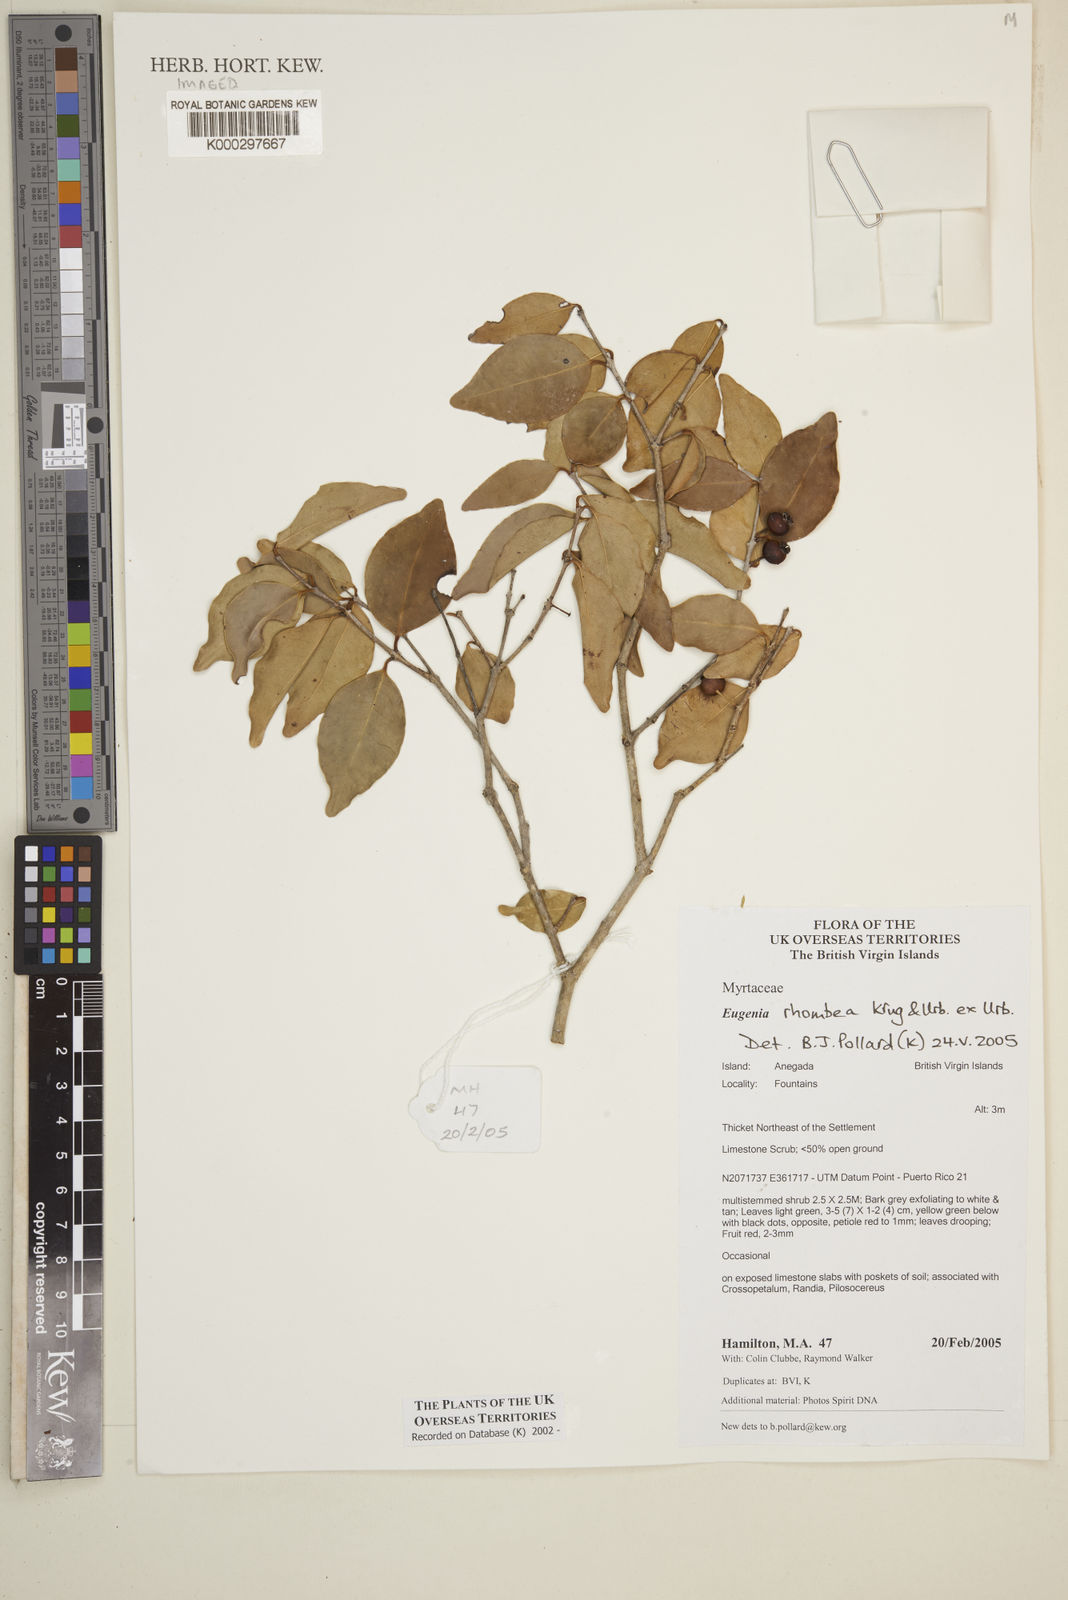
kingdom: Plantae
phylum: Tracheophyta
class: Magnoliopsida
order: Myrtales
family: Myrtaceae
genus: Eugenia
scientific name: Eugenia rhombea
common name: Pigeon berry
